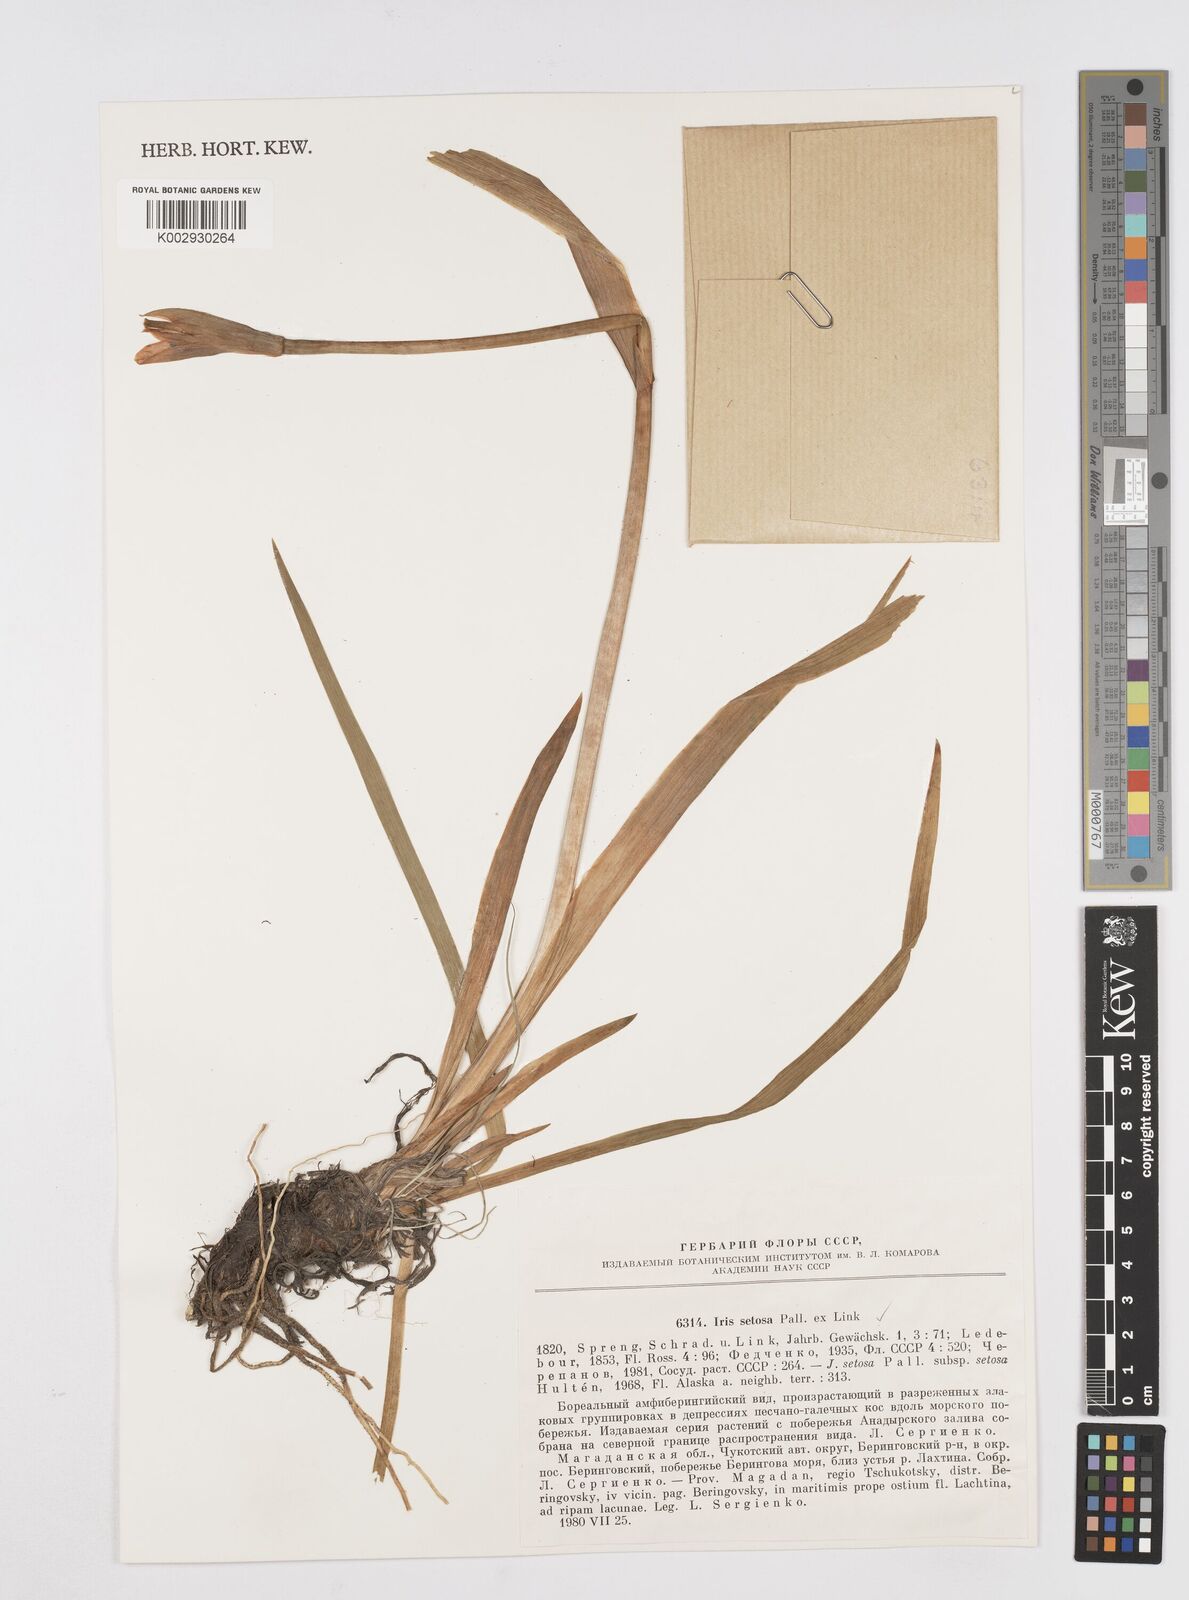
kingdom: Plantae
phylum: Tracheophyta
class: Liliopsida
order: Asparagales
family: Iridaceae
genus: Iris
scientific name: Iris setosa
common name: Arctic blue flag
